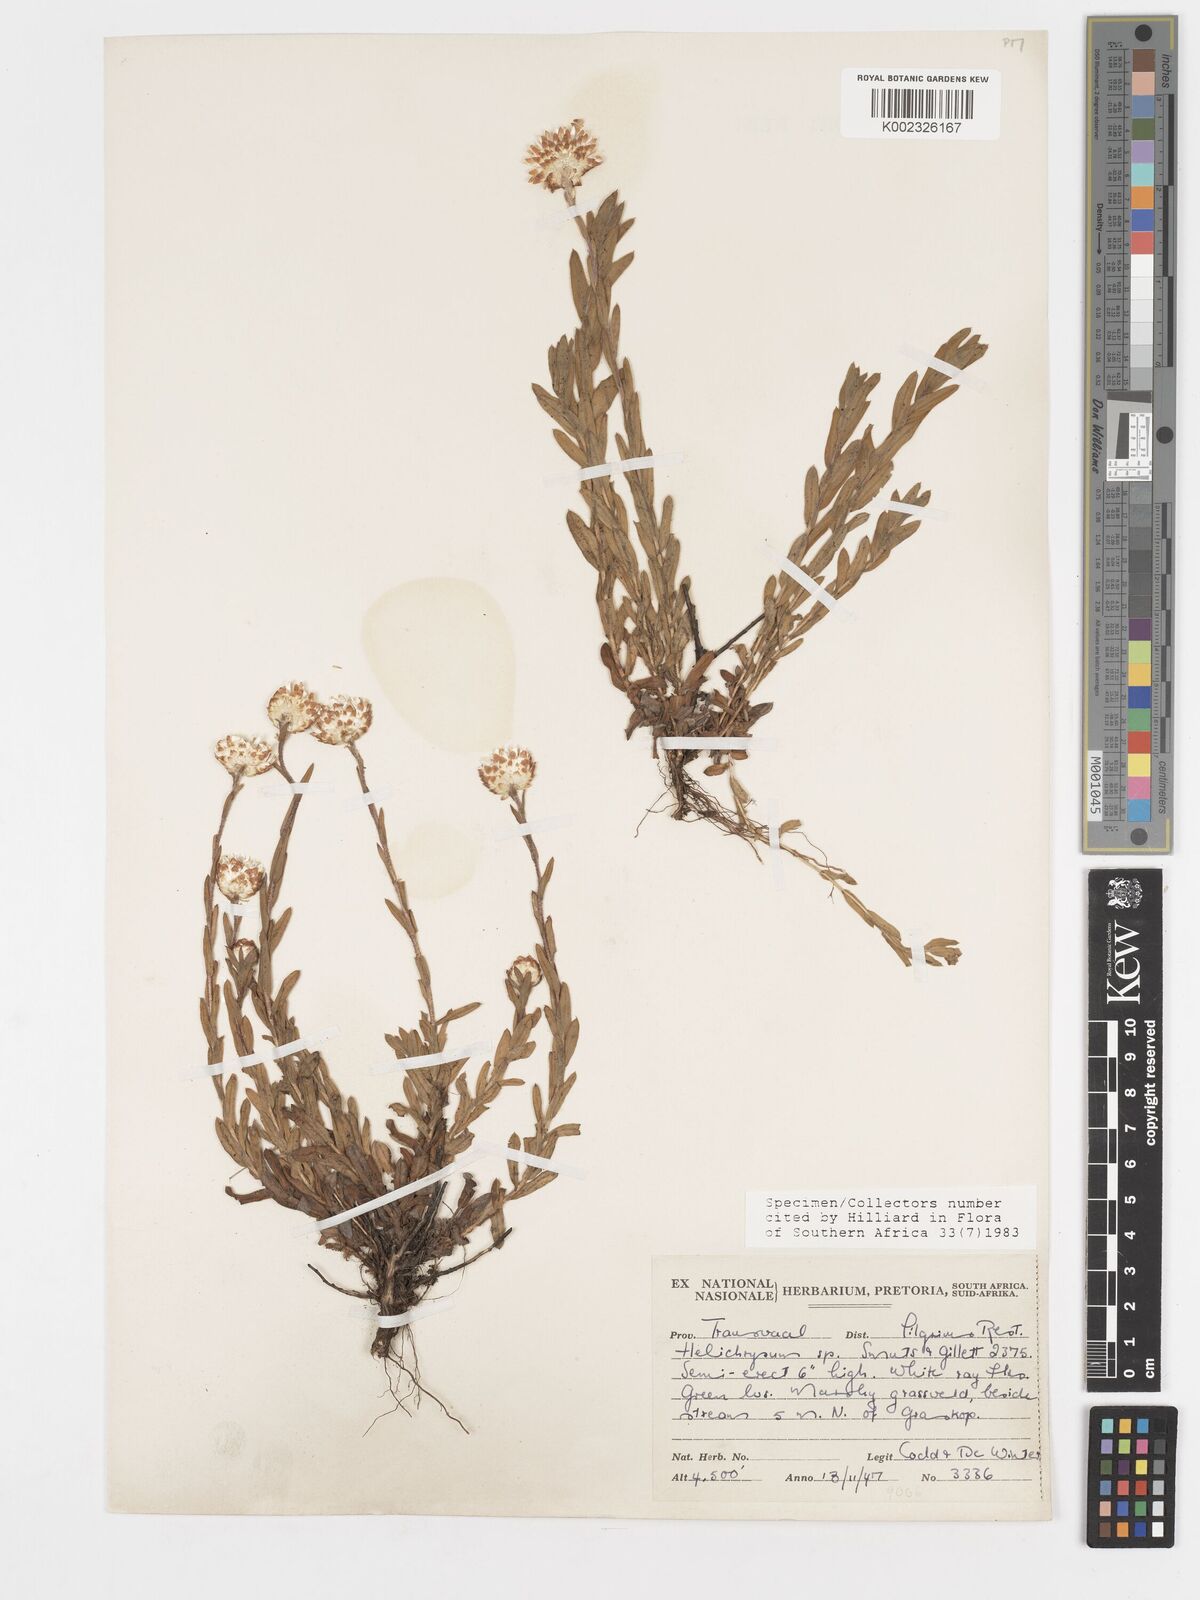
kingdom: Plantae
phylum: Tracheophyta
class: Magnoliopsida
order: Asterales
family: Asteraceae
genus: Helichrysum
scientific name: Helichrysum mariepscopicum
